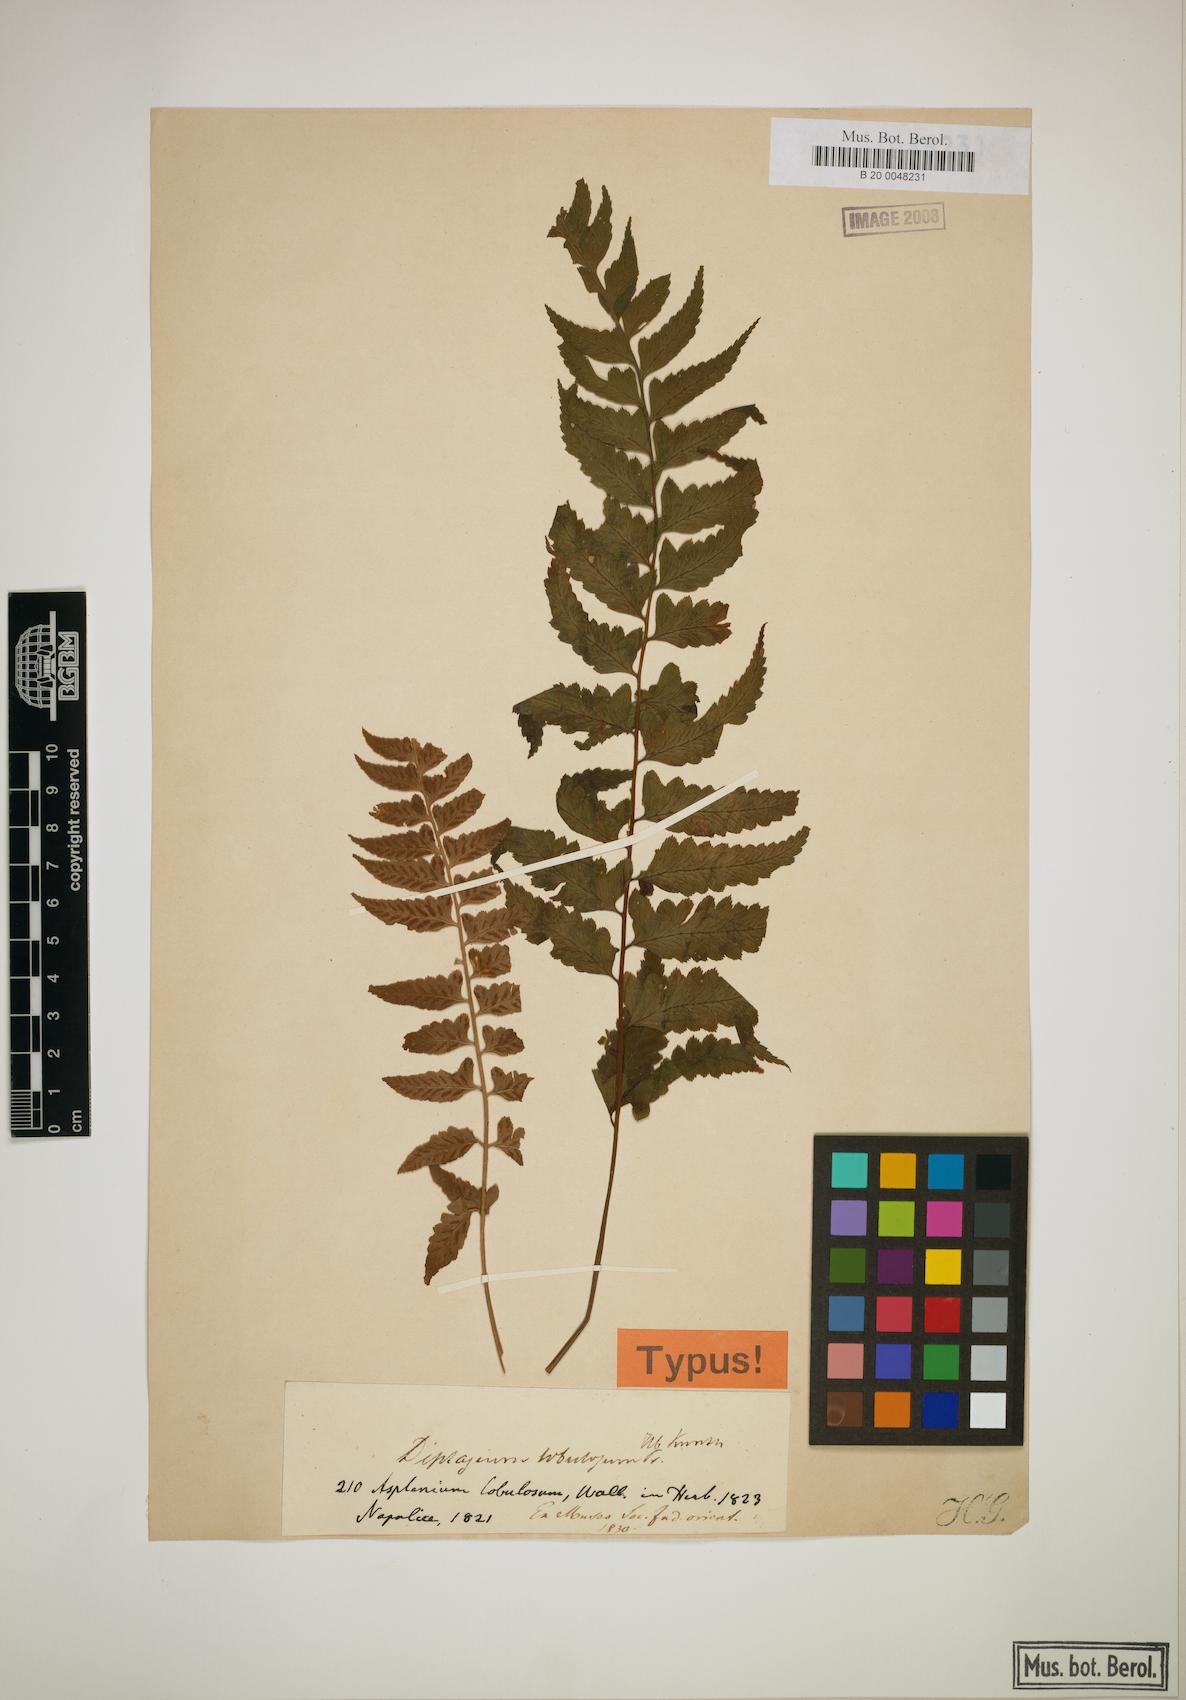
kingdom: Plantae
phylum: Tracheophyta
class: Polypodiopsida
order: Polypodiales
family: Athyriaceae
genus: Diplazium
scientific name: Diplazium longifolium
